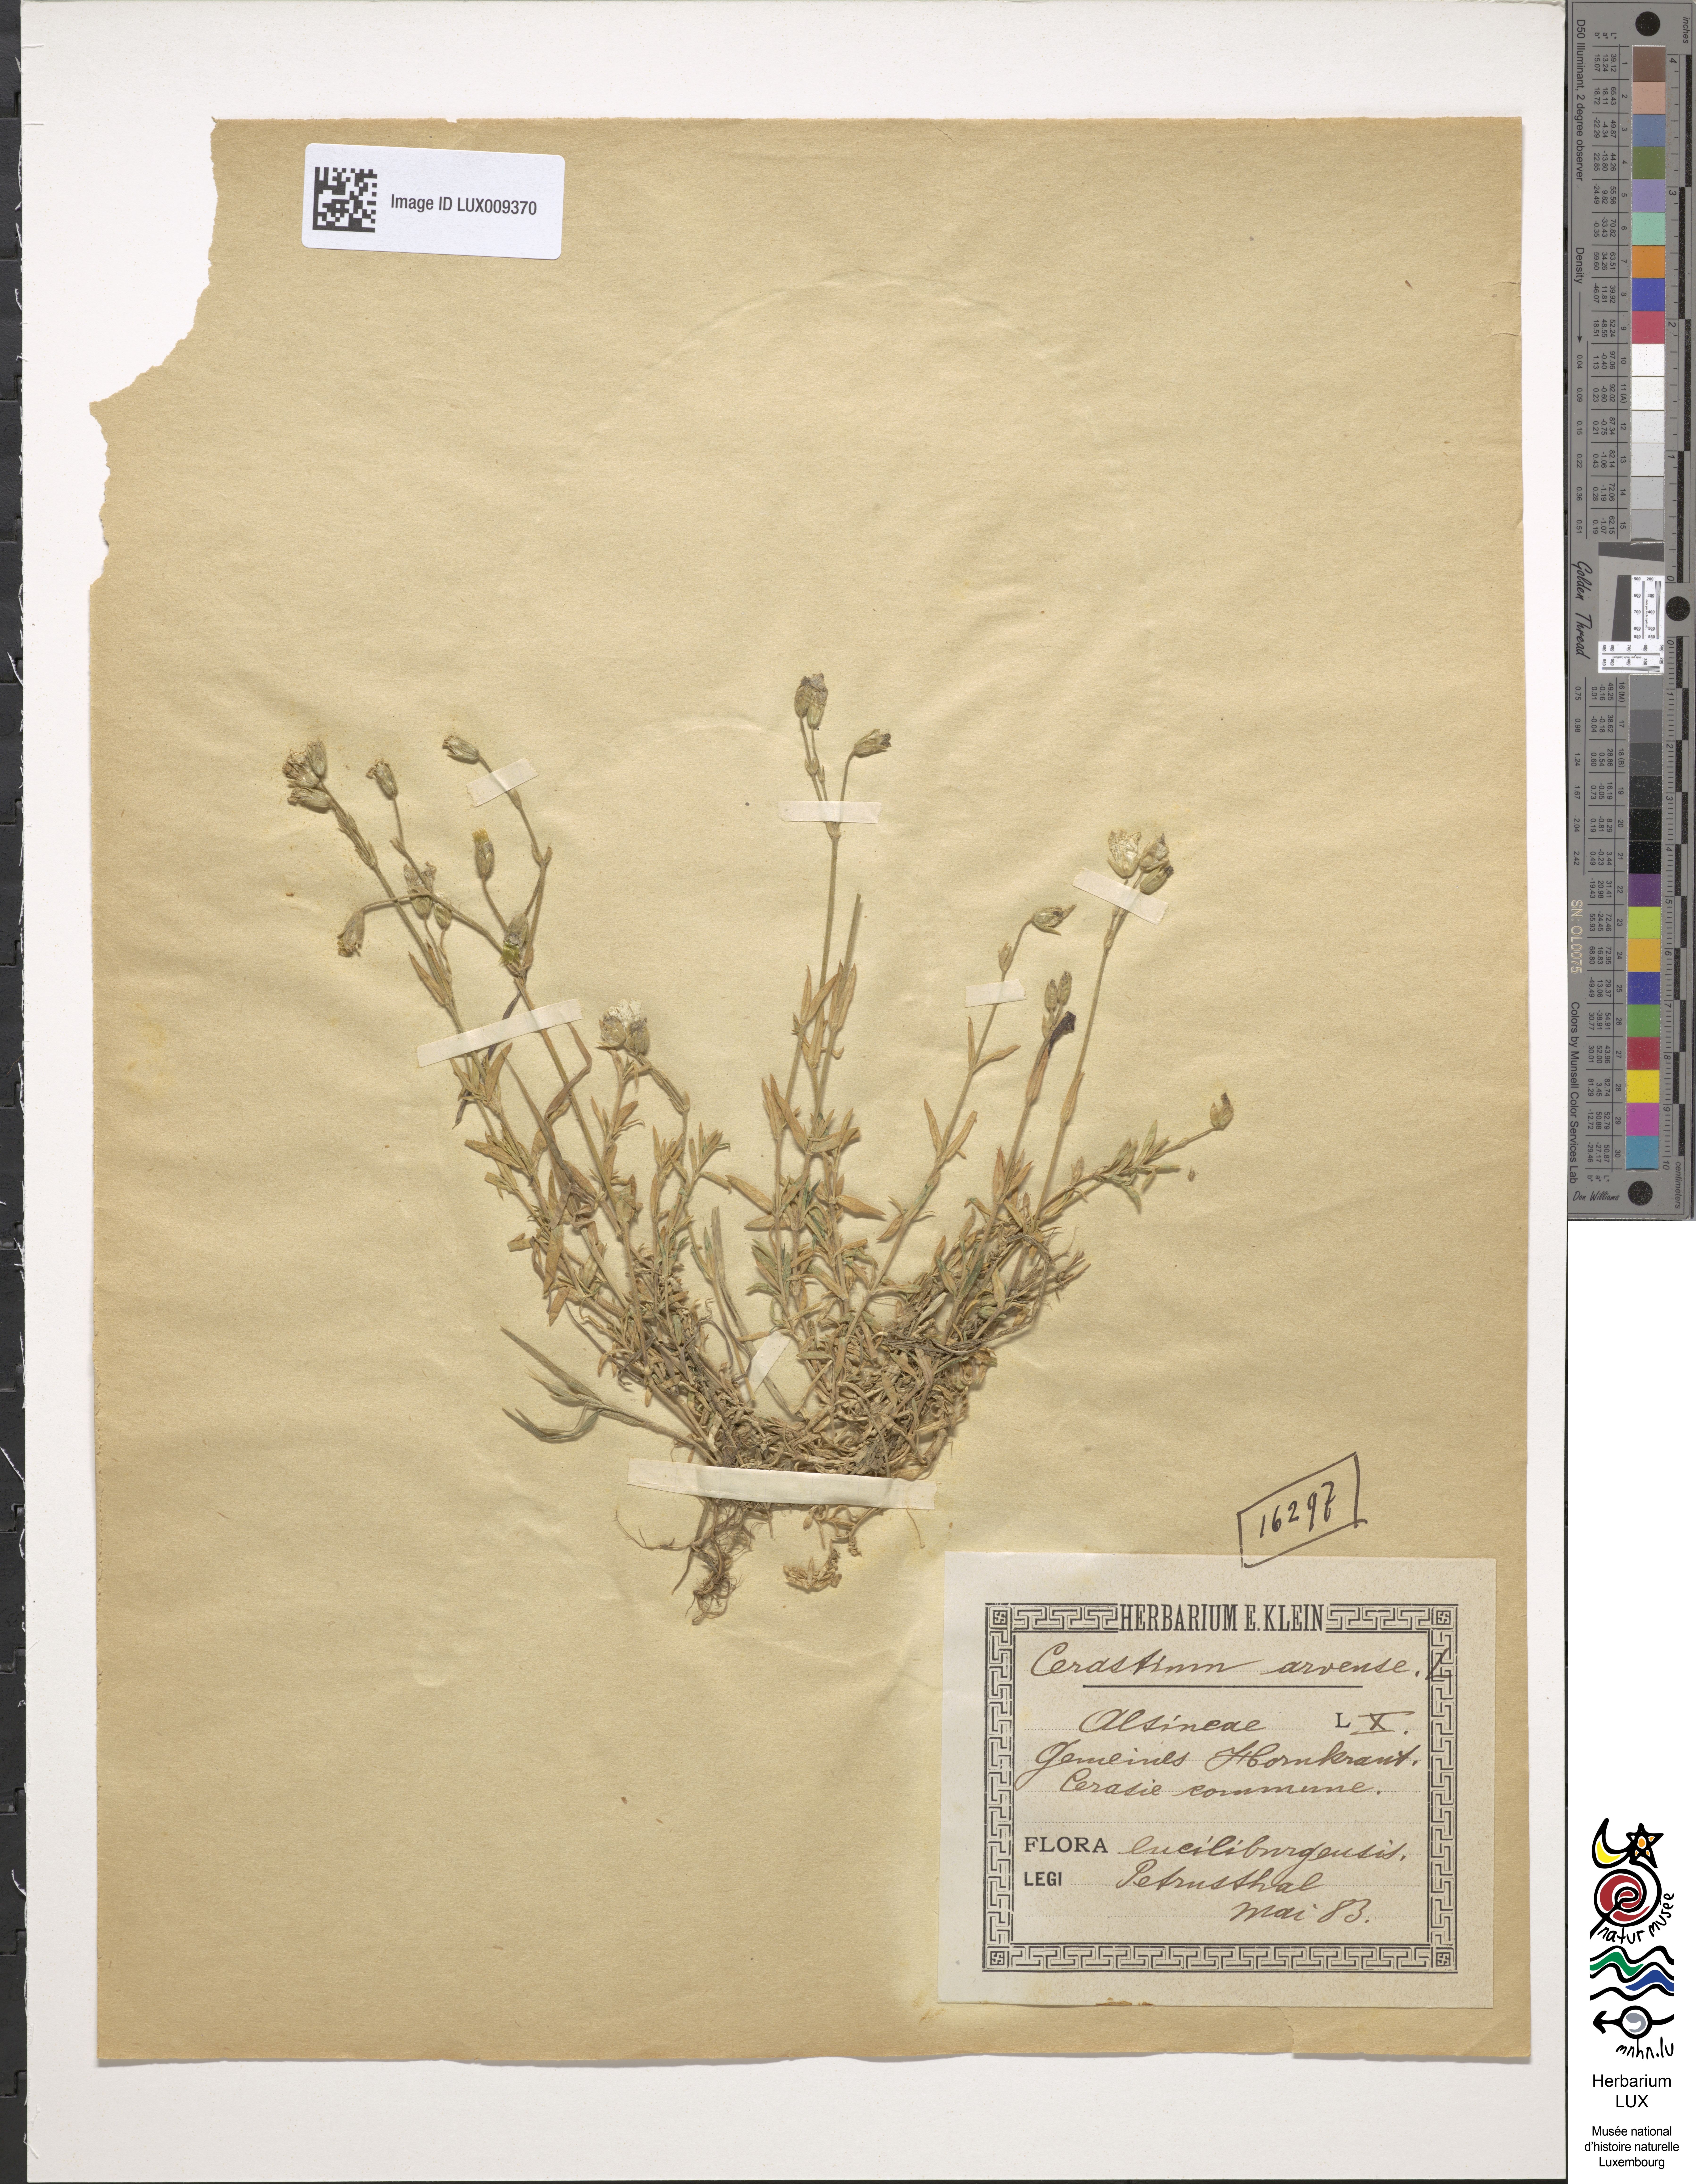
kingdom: Plantae
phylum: Tracheophyta
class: Magnoliopsida
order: Caryophyllales
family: Caryophyllaceae
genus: Cerastium
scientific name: Cerastium arvense
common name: Field mouse-ear
